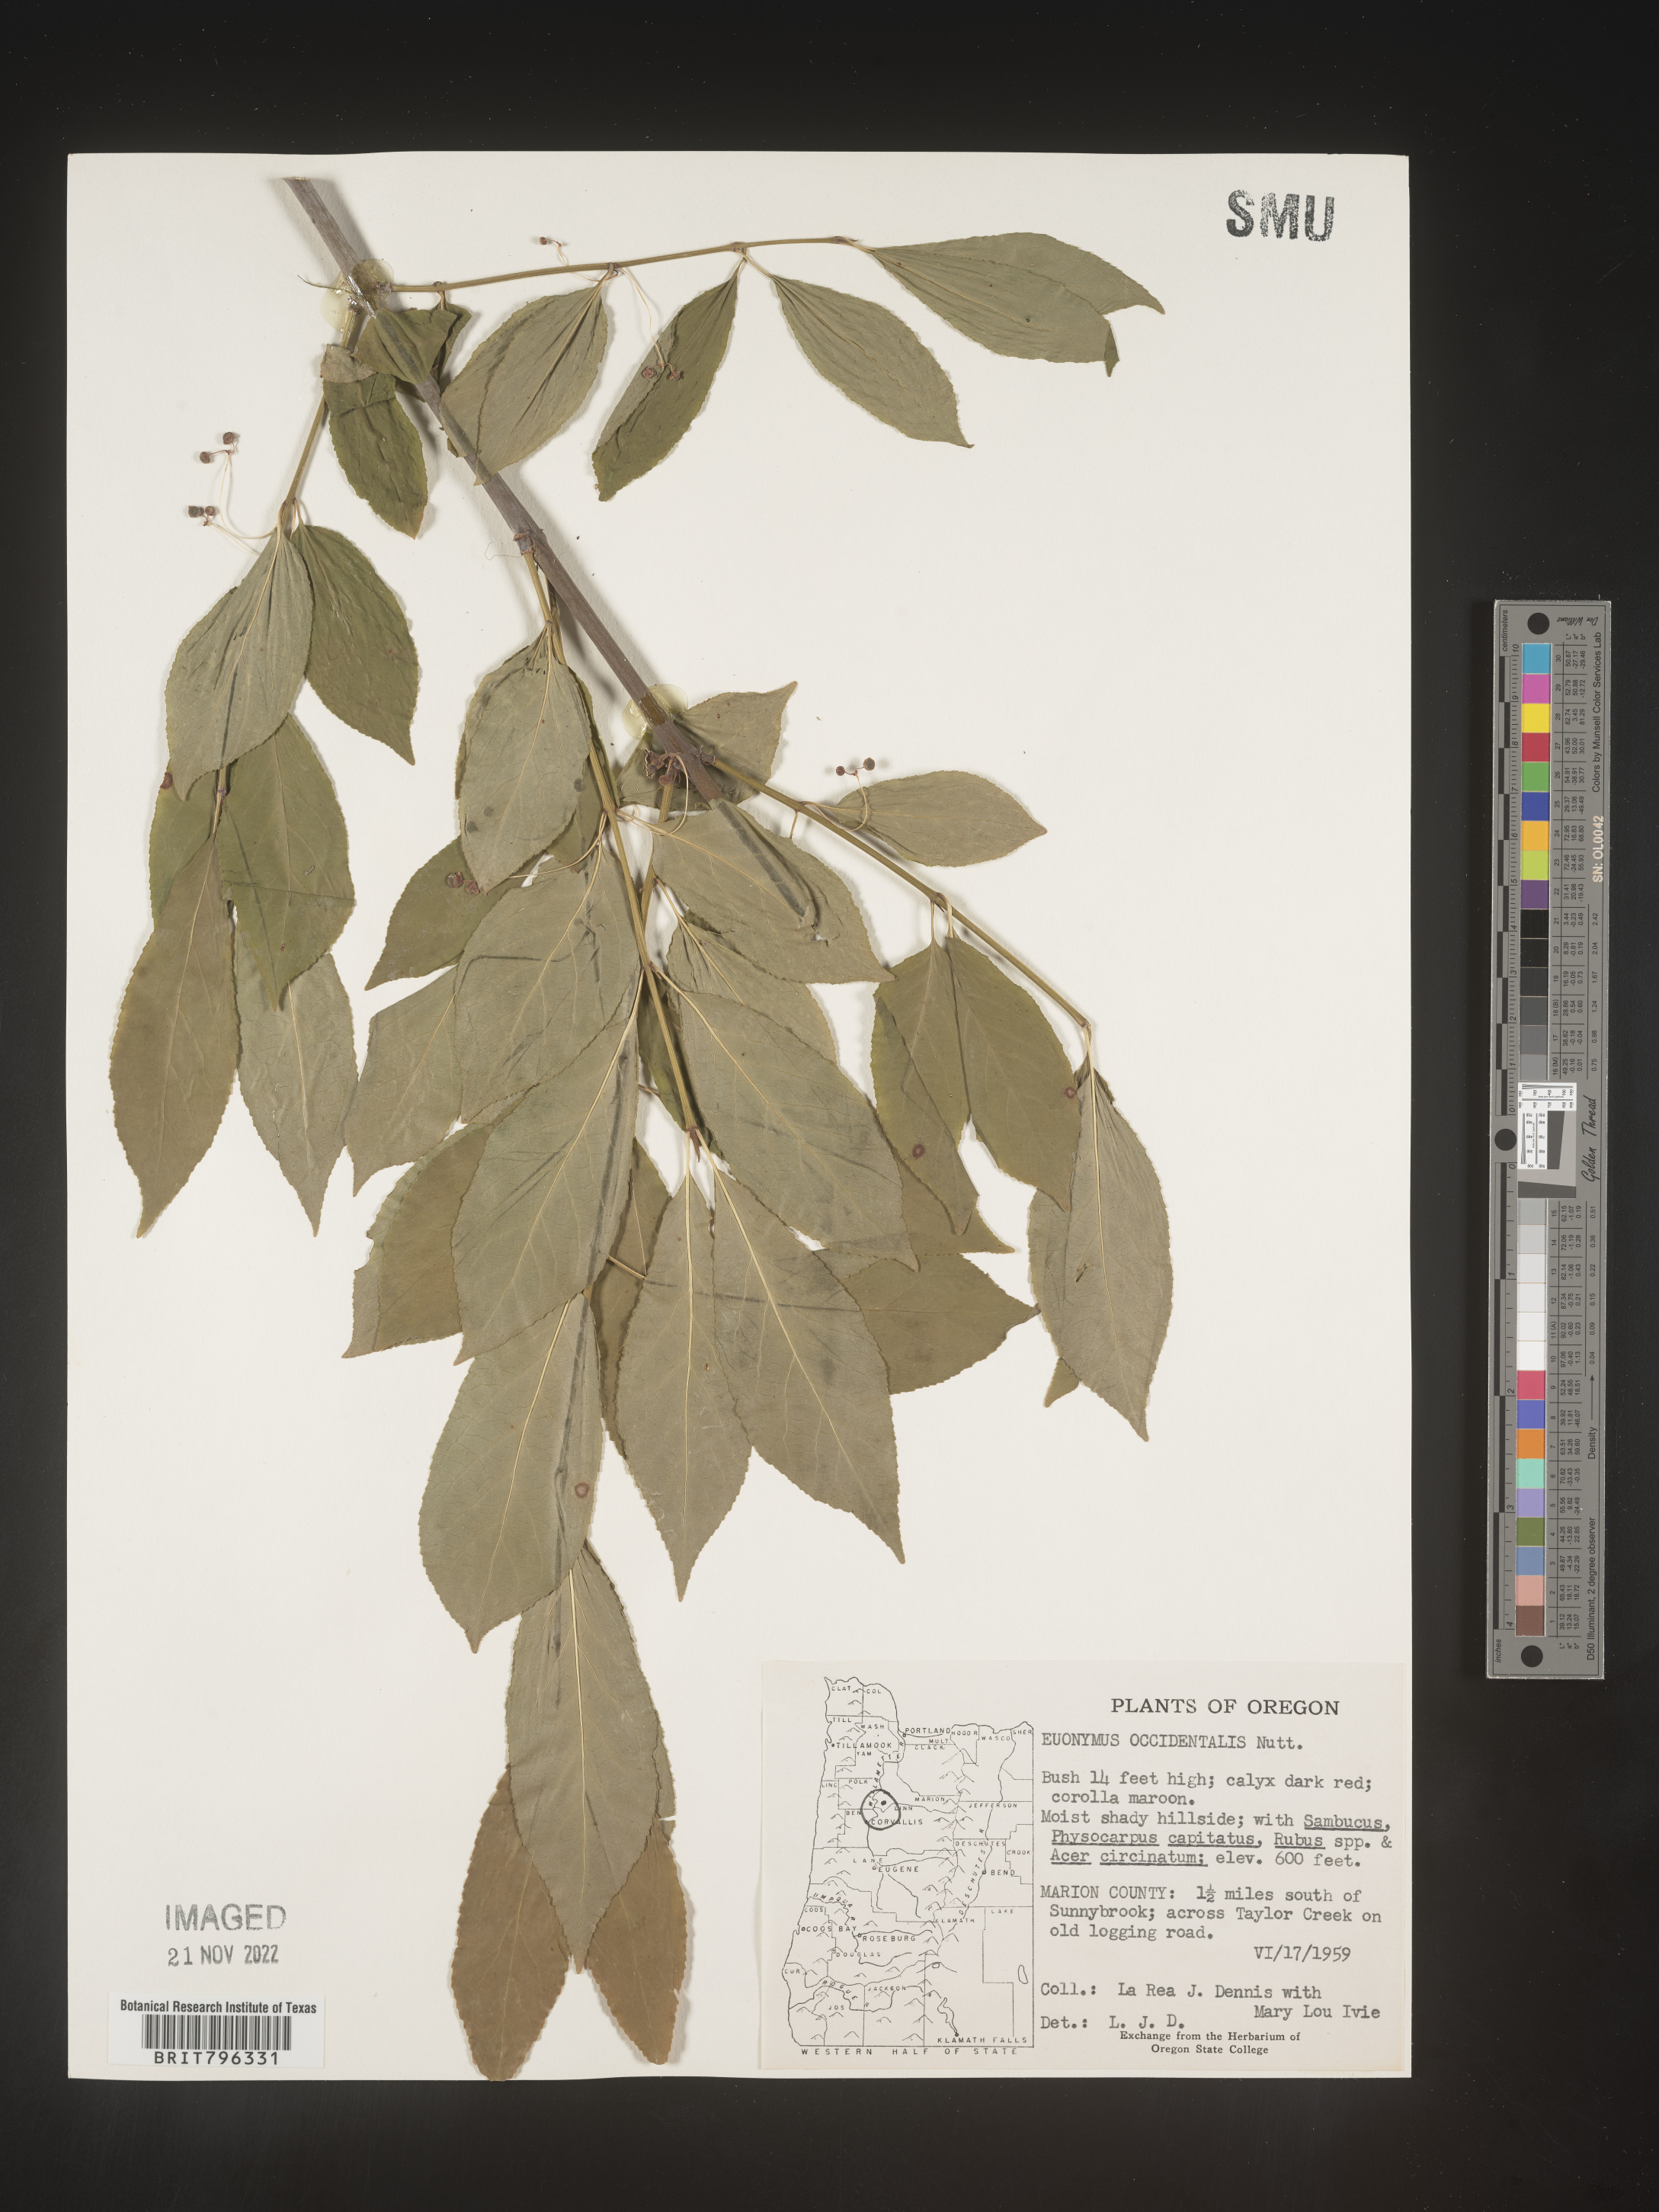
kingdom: Plantae
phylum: Tracheophyta
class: Magnoliopsida
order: Celastrales
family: Celastraceae
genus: Euonymus
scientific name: Euonymus occidentalis
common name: Western burningbush
